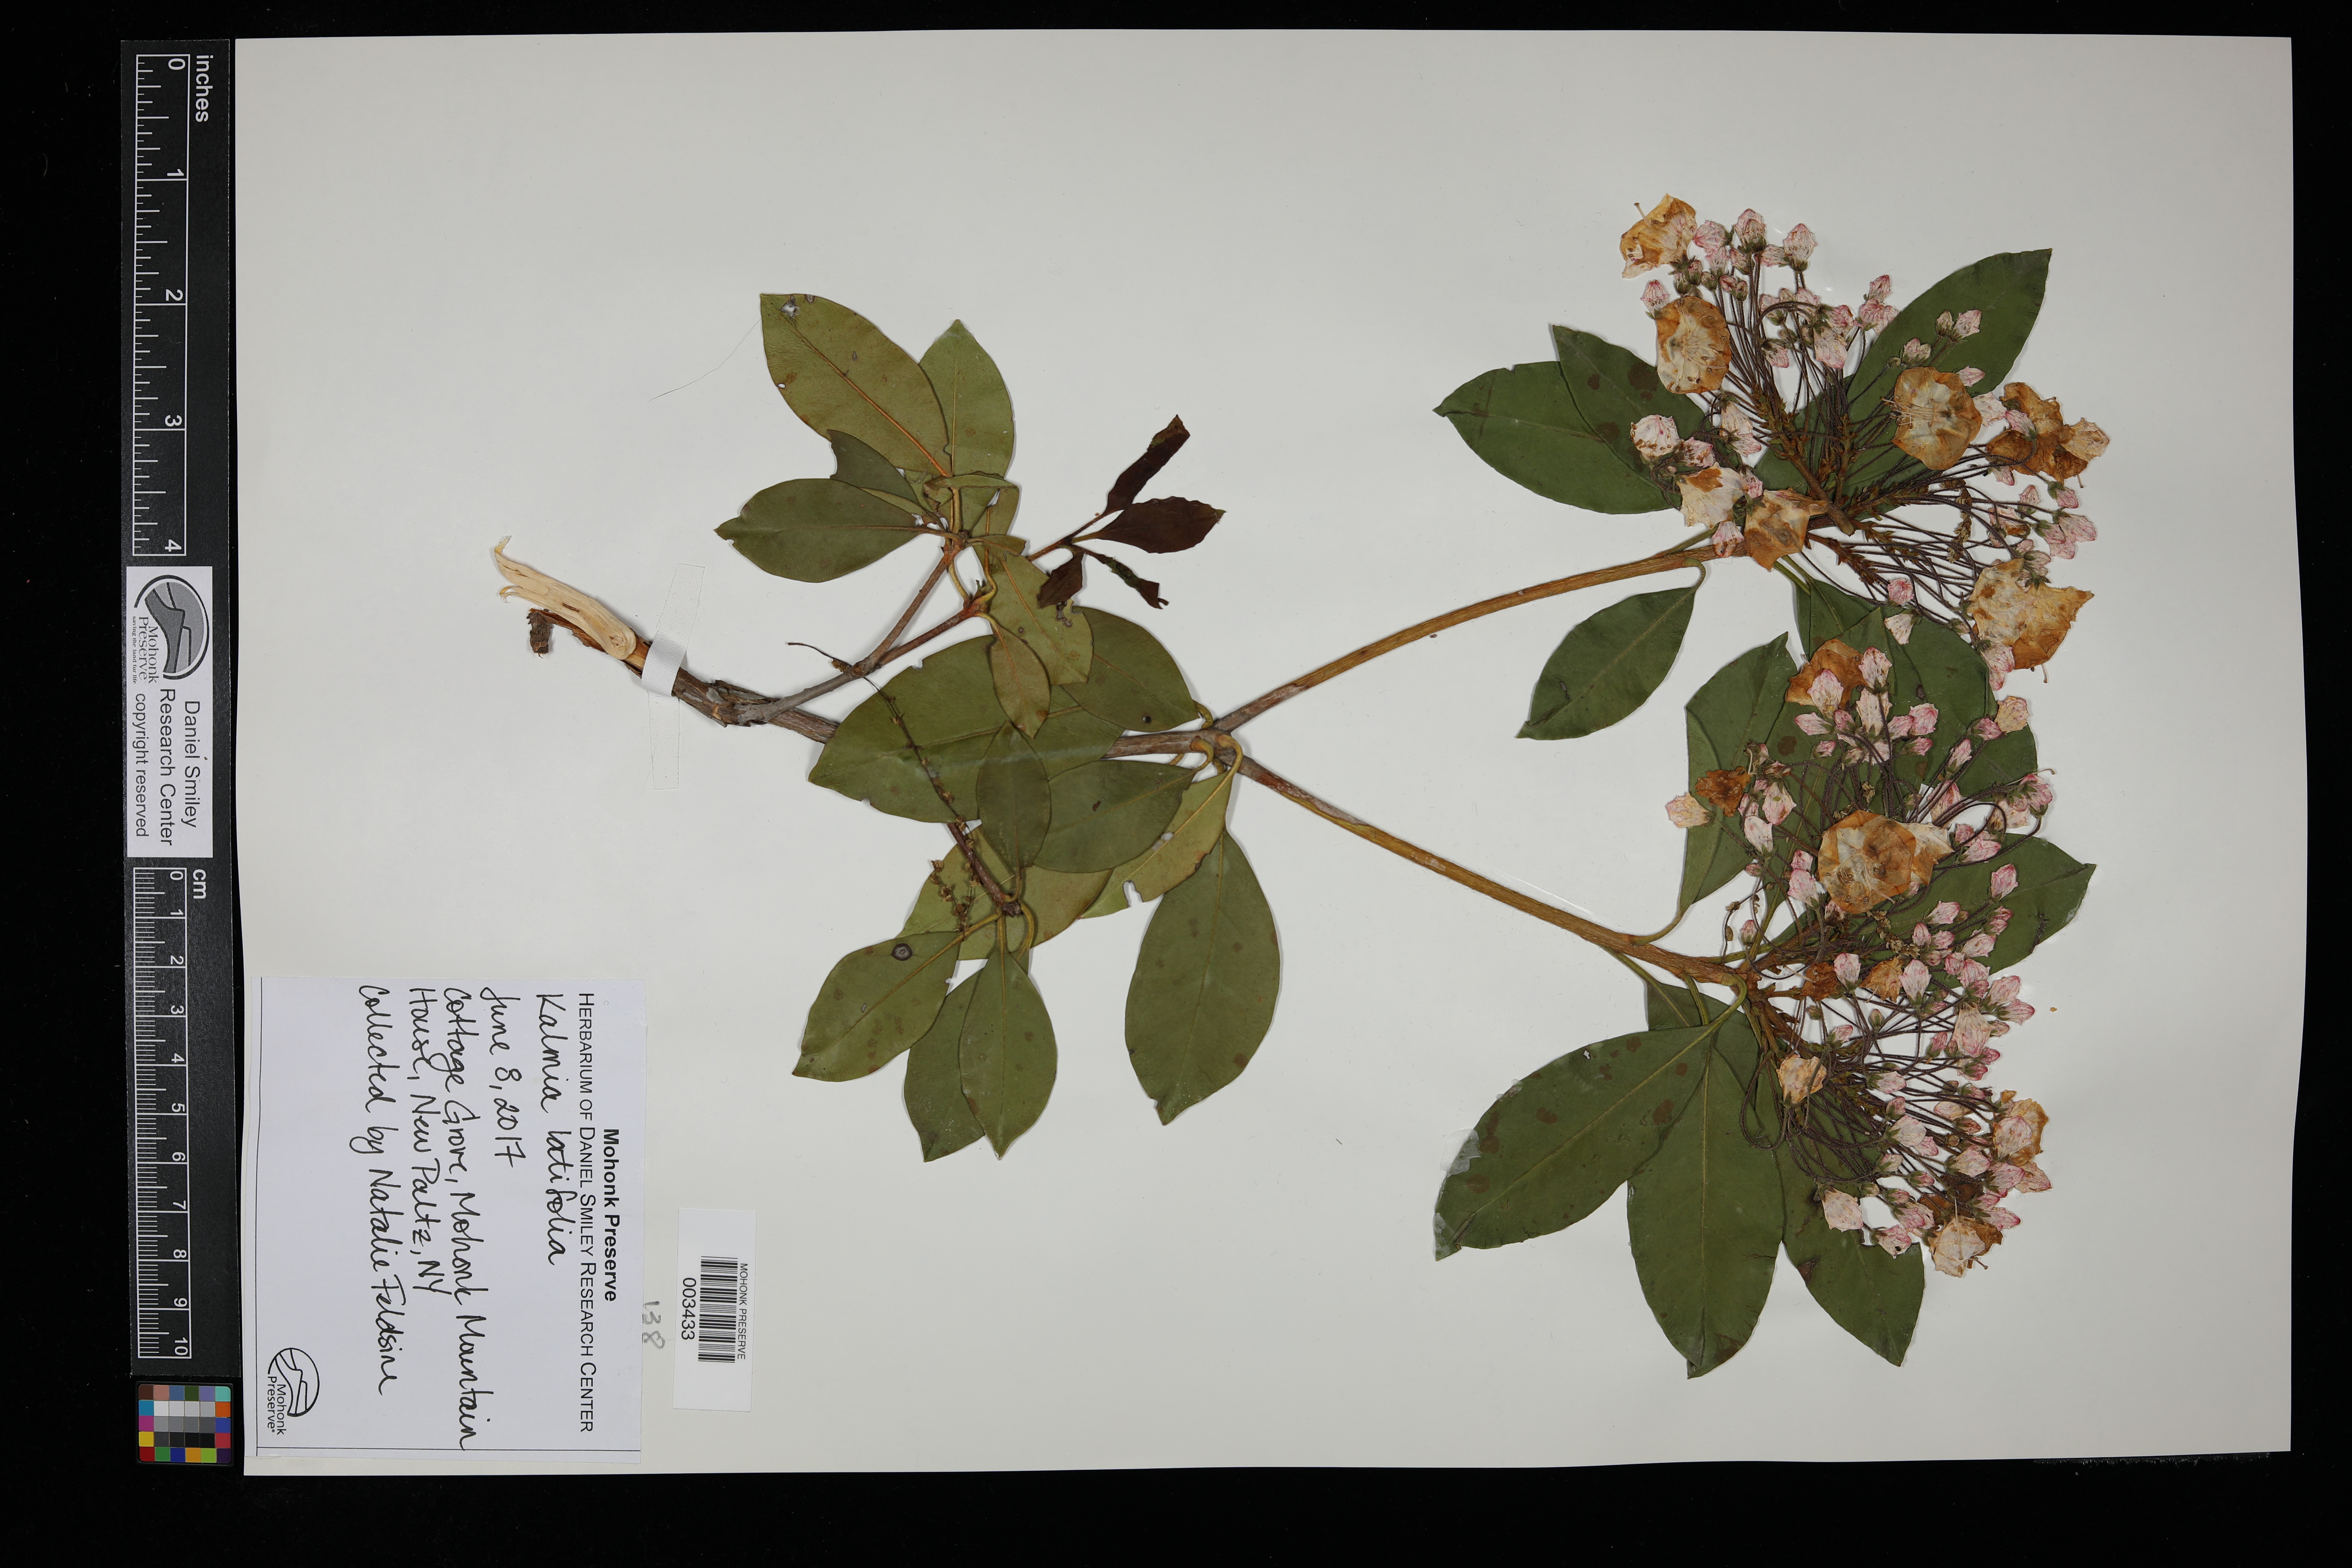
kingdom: Plantae
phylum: Tracheophyta
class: Magnoliopsida
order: Ericales
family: Ericaceae
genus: Kalmia
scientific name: Kalmia latifolia
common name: Mountain-laurel
